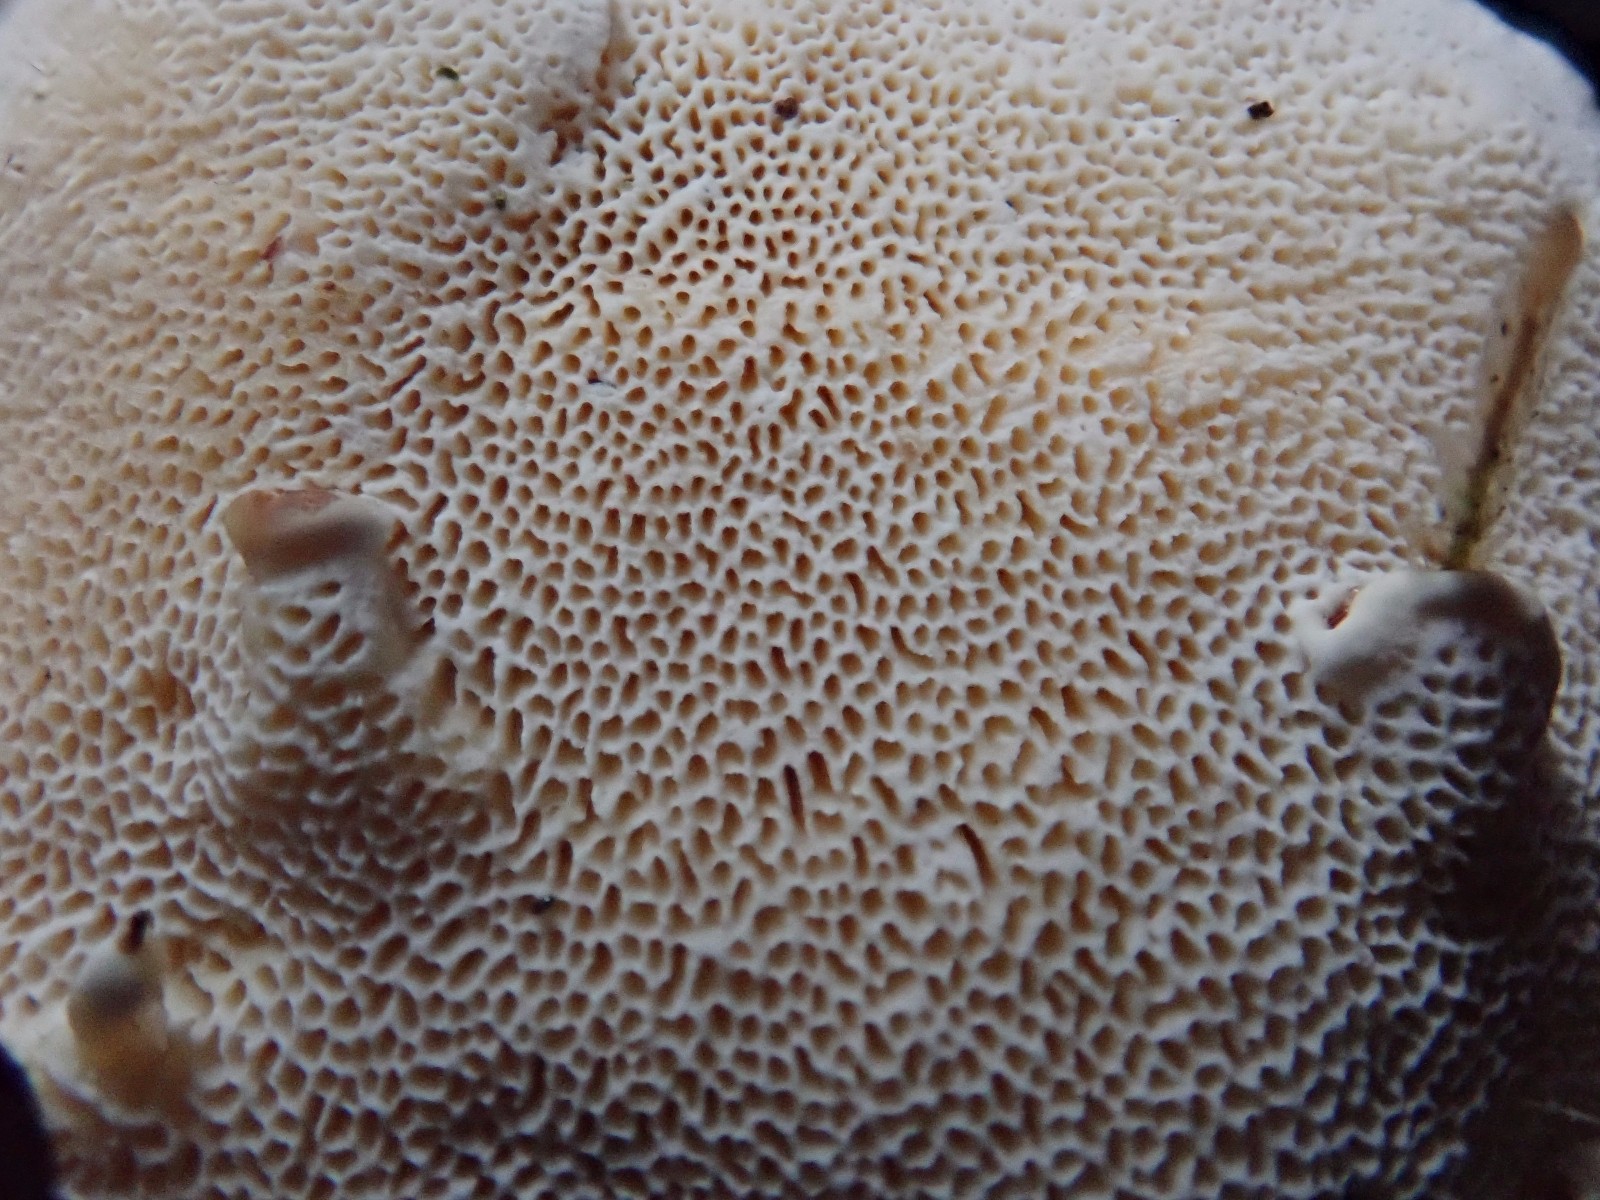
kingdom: Fungi
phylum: Basidiomycota
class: Agaricomycetes
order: Russulales
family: Bondarzewiaceae
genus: Heterobasidion
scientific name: Heterobasidion annosum
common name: almindelig rodfordærver
